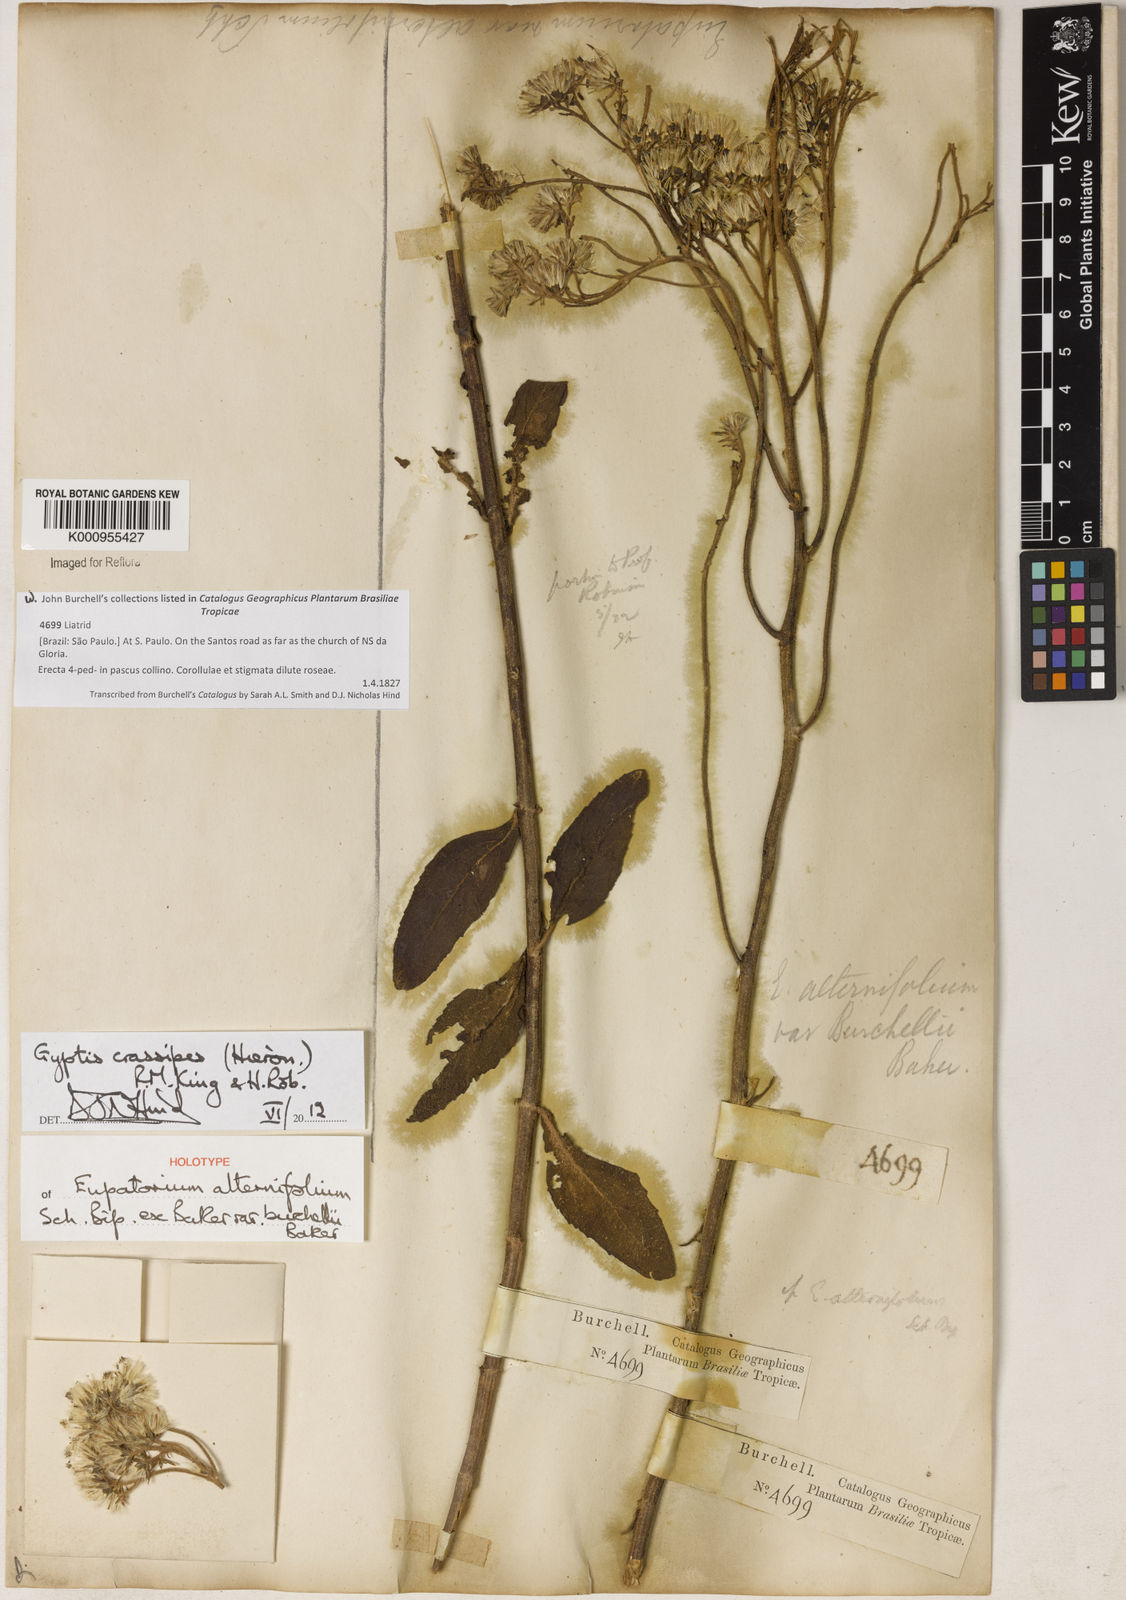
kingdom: Plantae
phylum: Tracheophyta
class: Magnoliopsida
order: Asterales
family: Asteraceae
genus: Gyptis
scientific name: Gyptis crassipes
